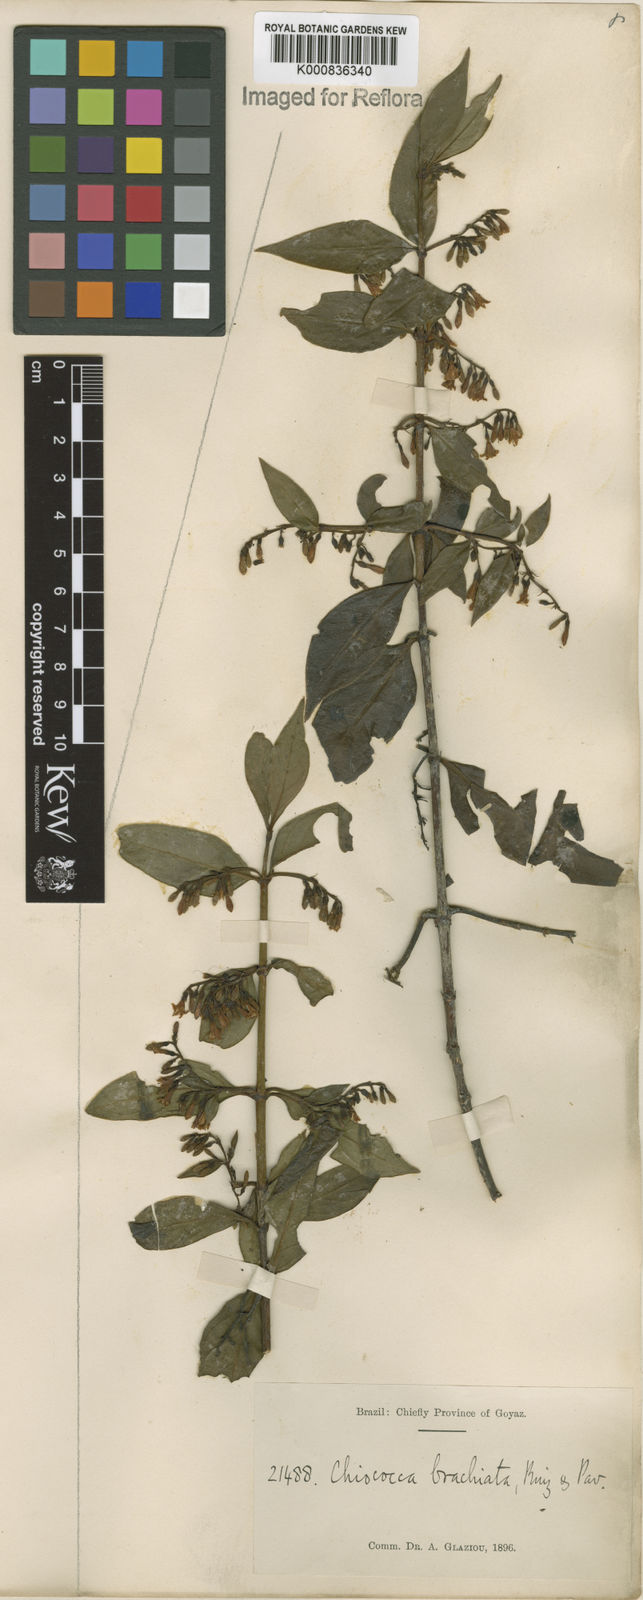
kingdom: Plantae
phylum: Tracheophyta
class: Magnoliopsida
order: Gentianales
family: Rubiaceae
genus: Chiococca
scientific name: Chiococca alba
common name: Snowberry
